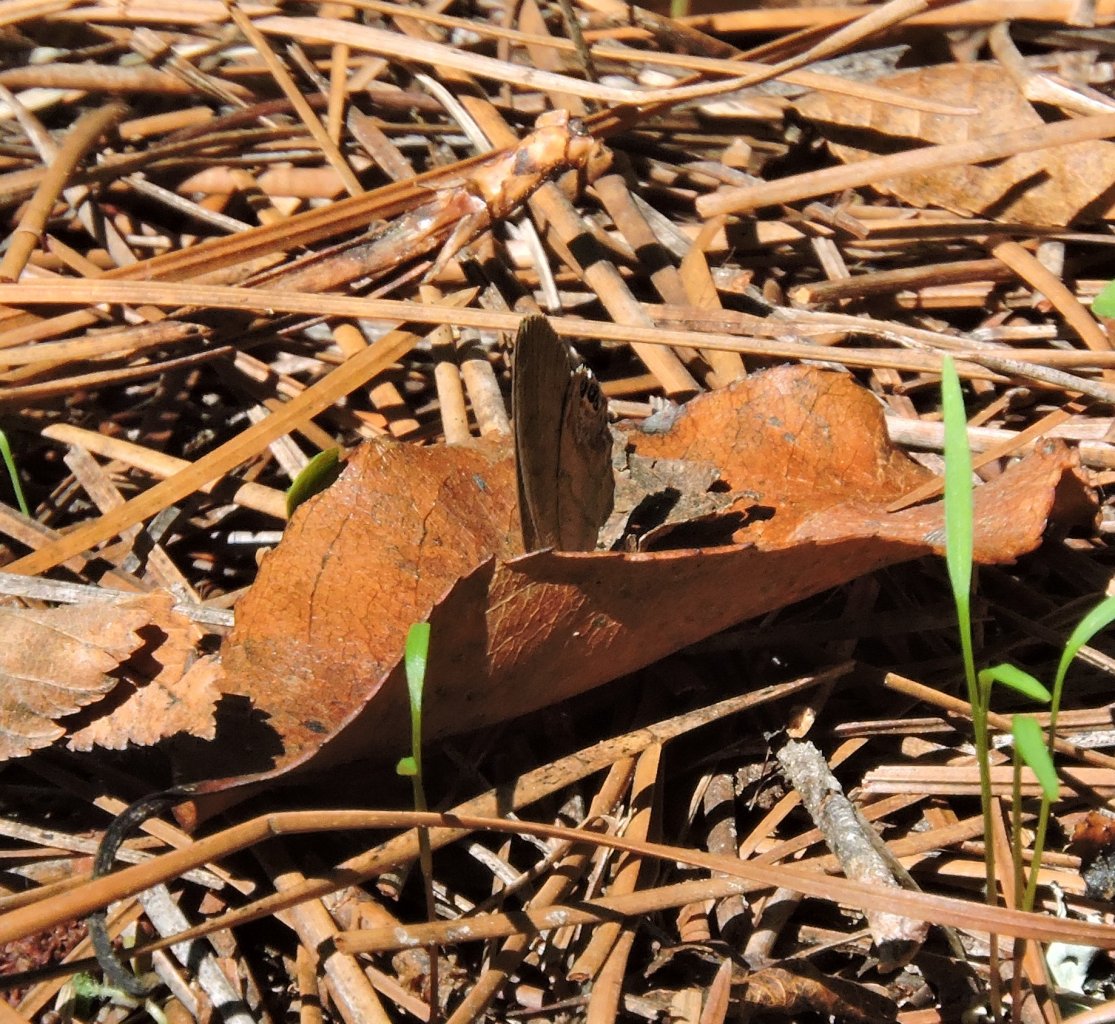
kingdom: Animalia
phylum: Arthropoda
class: Insecta
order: Lepidoptera
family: Nymphalidae
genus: Euptychia
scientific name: Euptychia cornelius
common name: Gemmed Satyr
